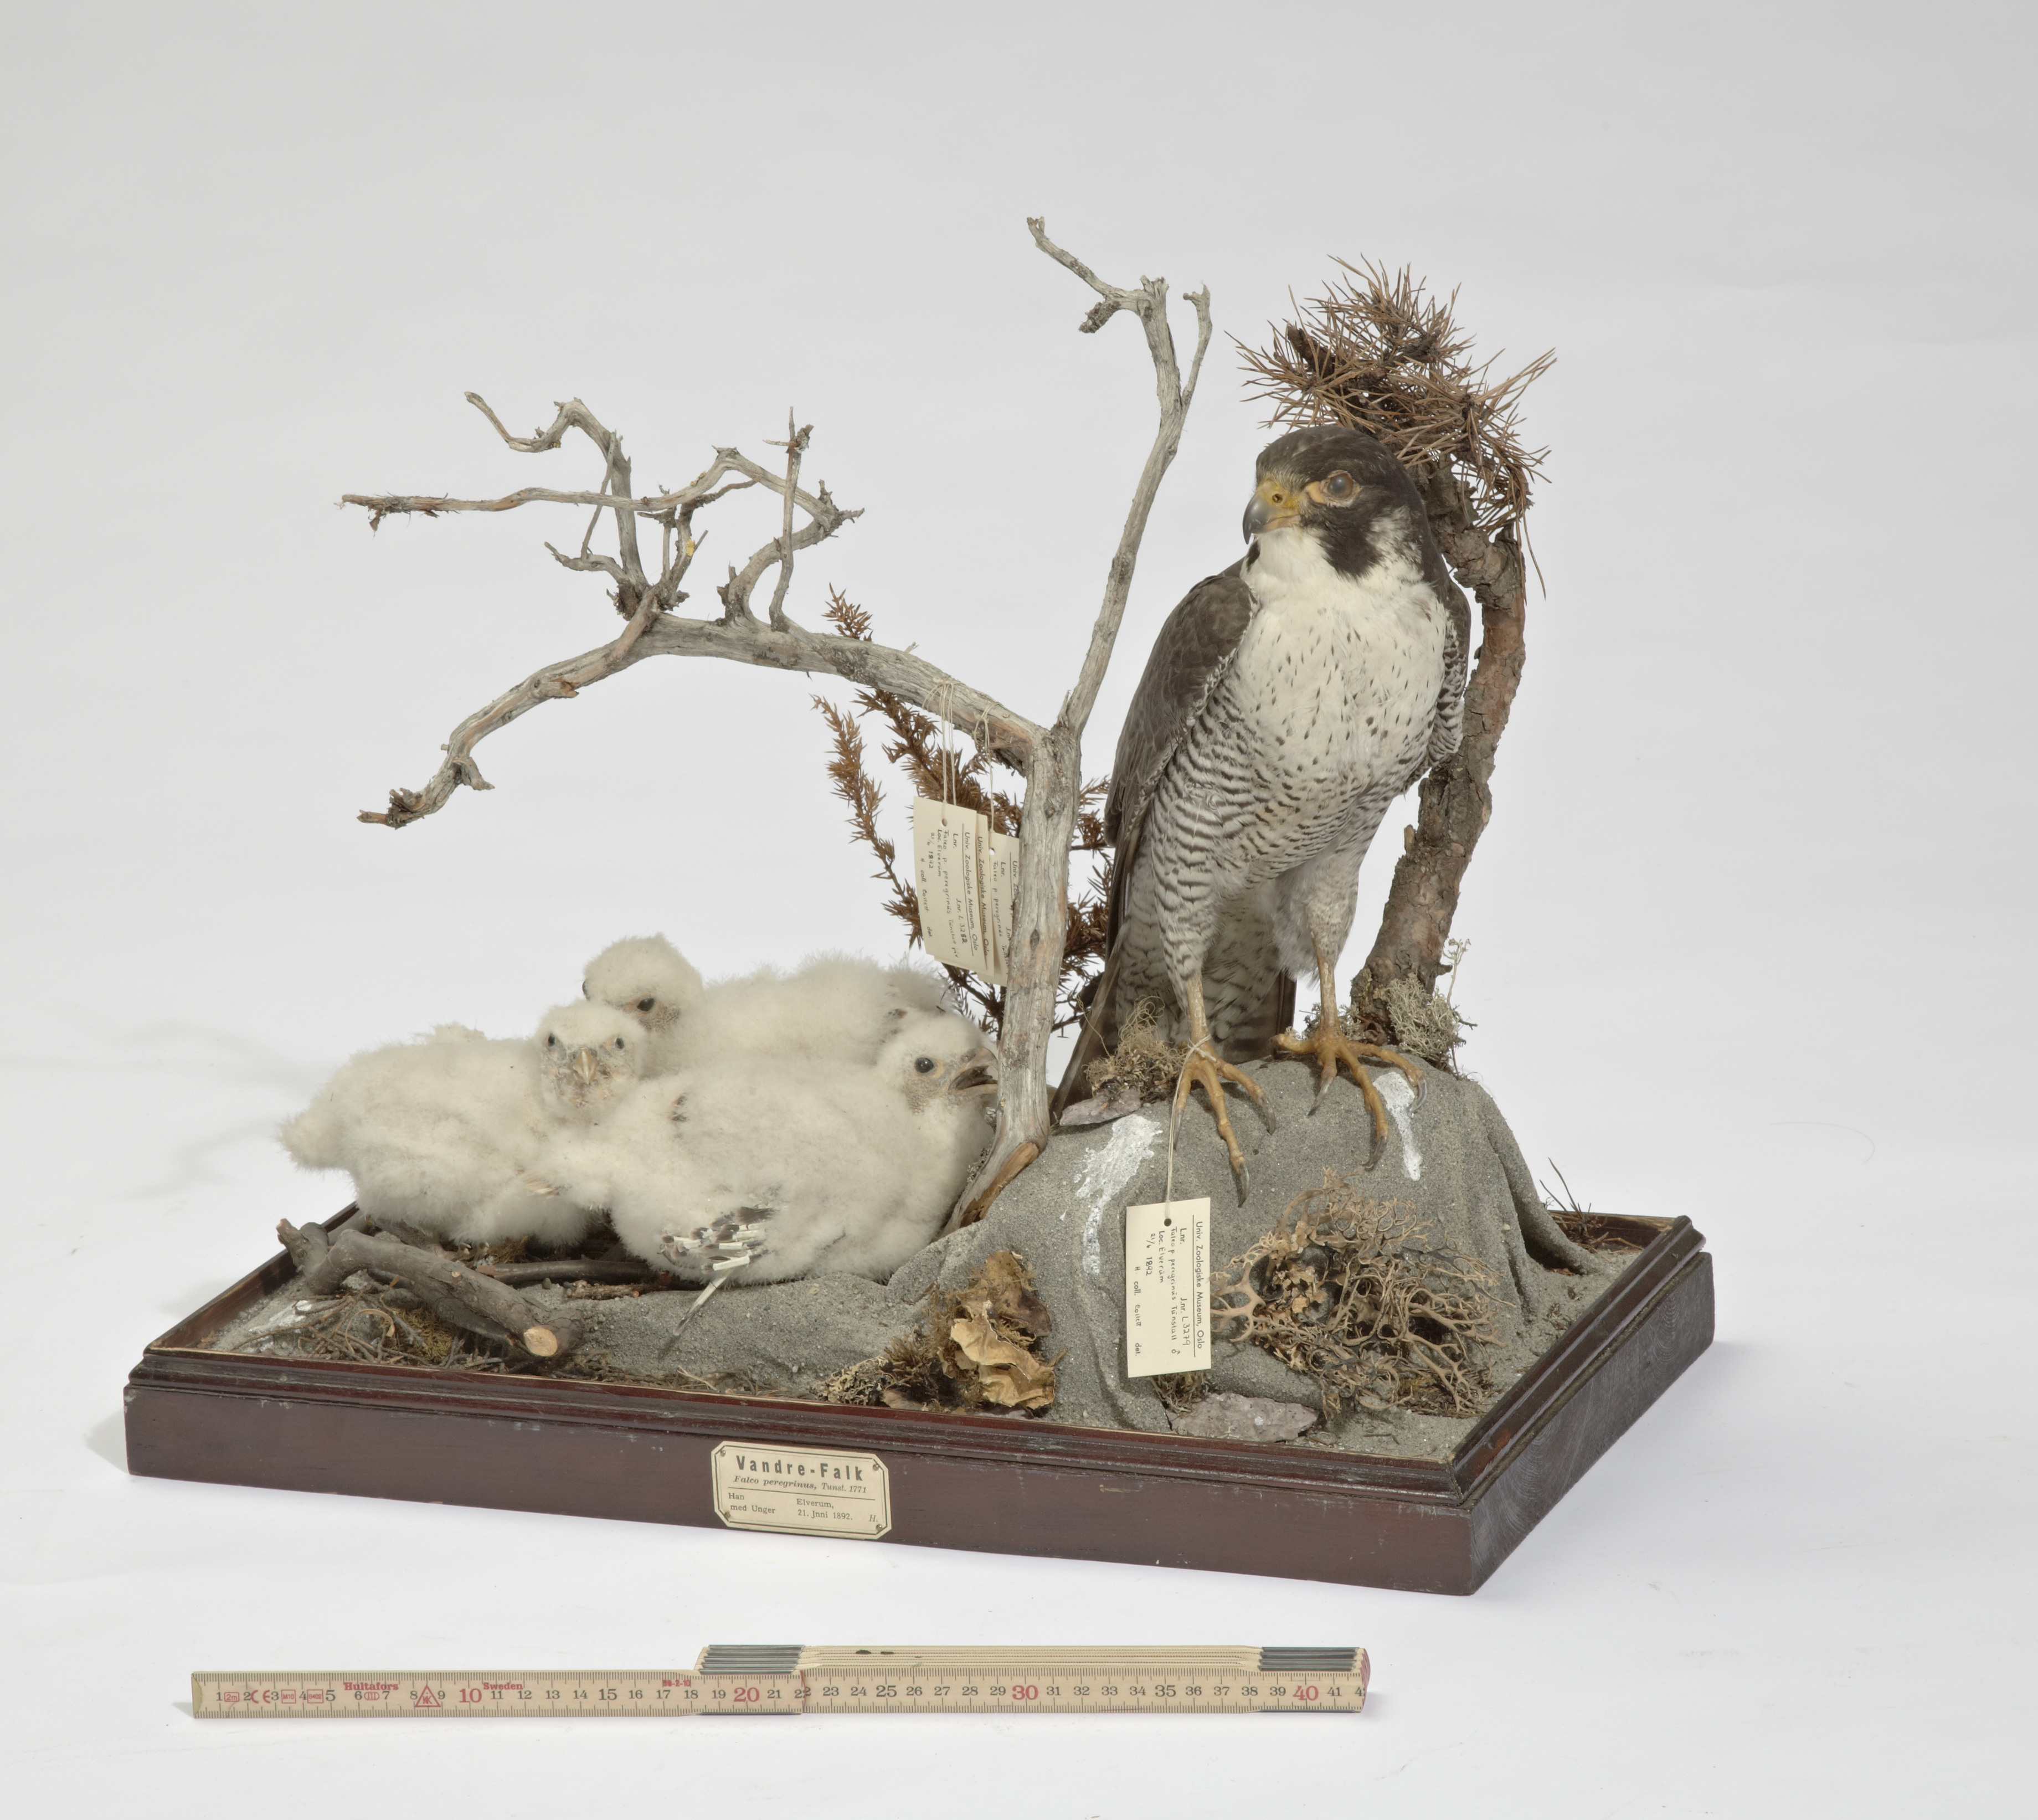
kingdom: Animalia
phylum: Chordata
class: Aves
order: Falconiformes
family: Falconidae
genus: Falco
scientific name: Falco peregrinus
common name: Peregrine falcon
